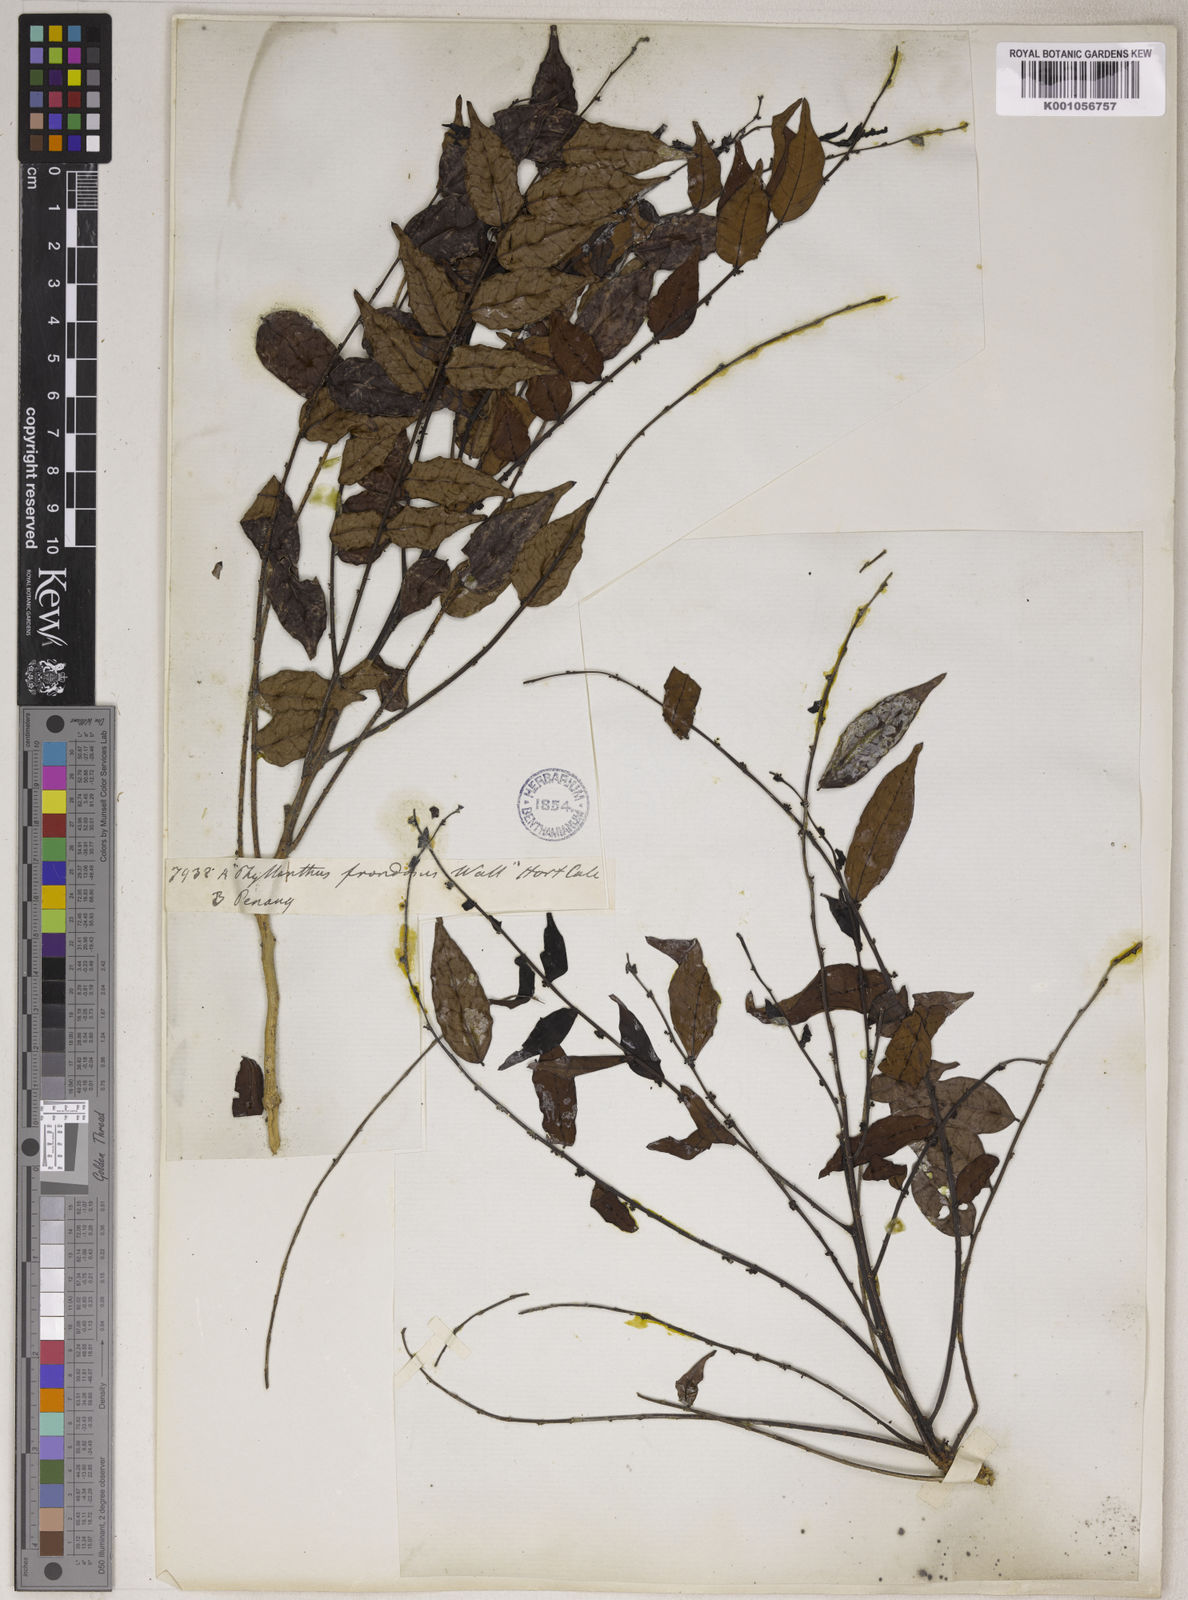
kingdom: Plantae
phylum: Tracheophyta
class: Magnoliopsida
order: Malpighiales
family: Phyllanthaceae
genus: Phyllanthus
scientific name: Phyllanthus oxyphyllus
